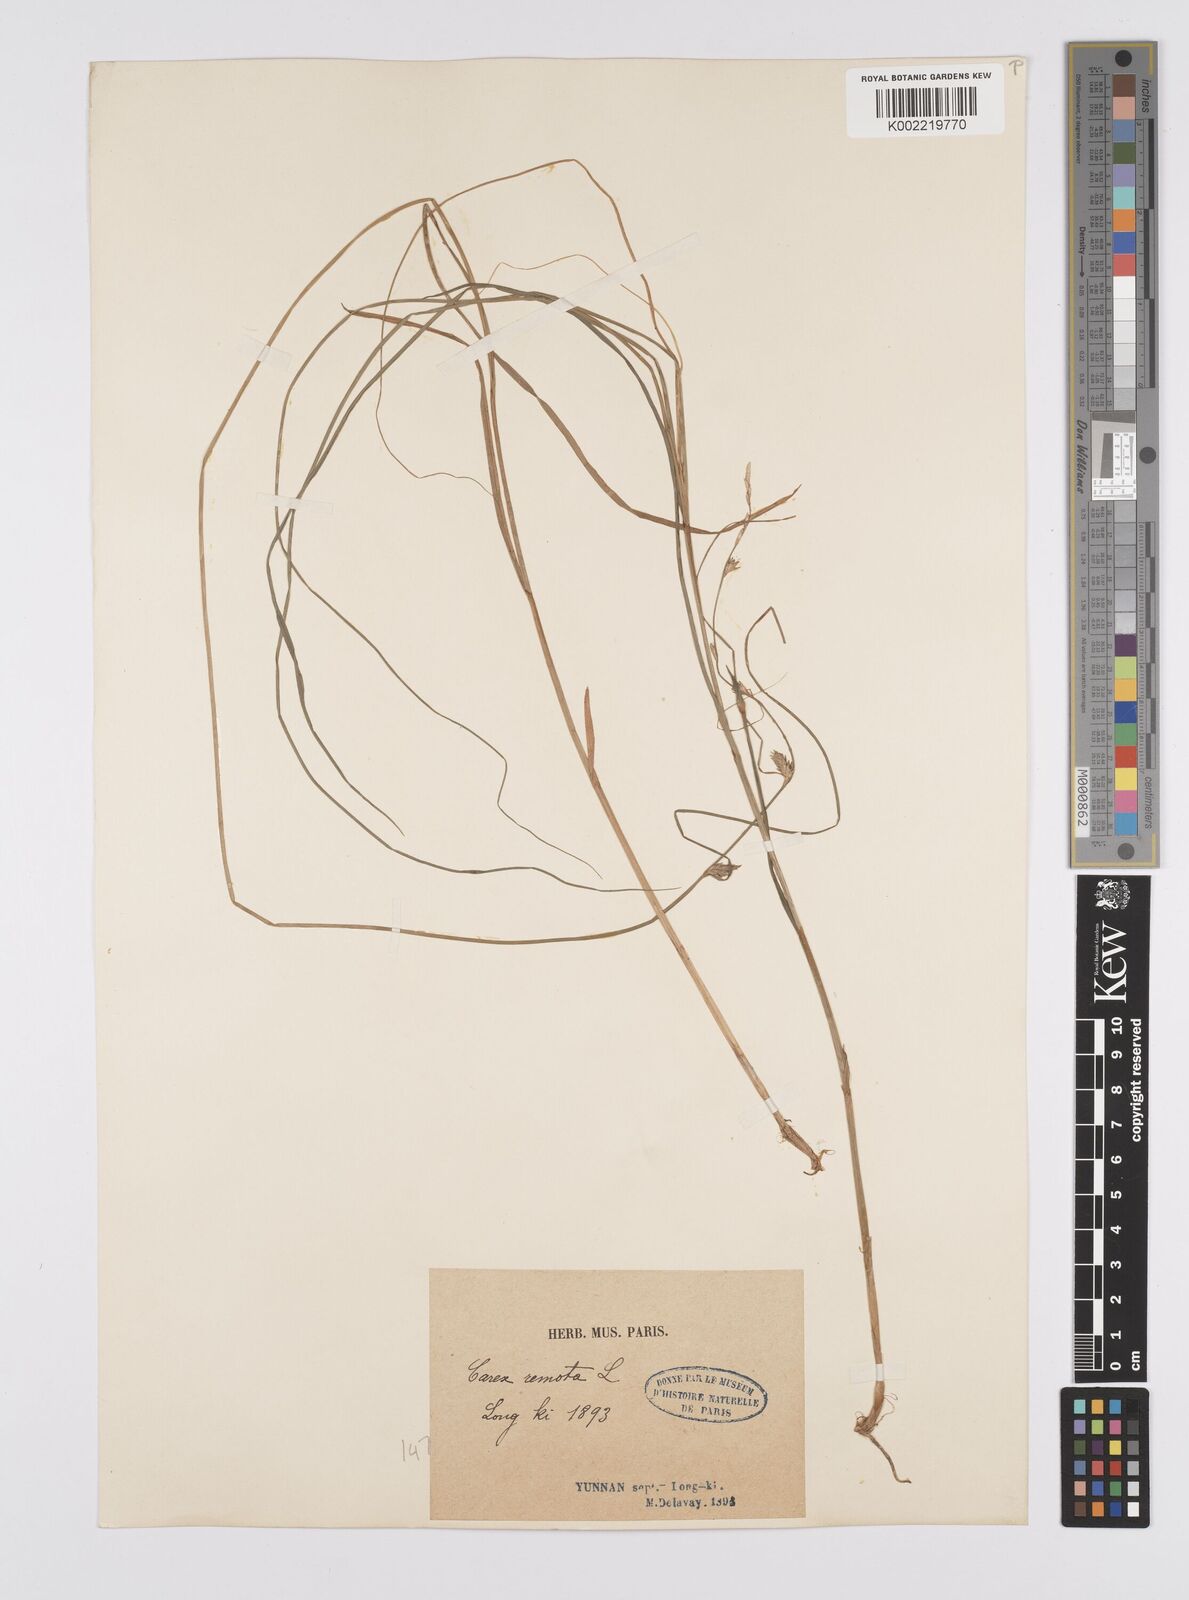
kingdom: Plantae
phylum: Tracheophyta
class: Liliopsida
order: Poales
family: Cyperaceae
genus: Carex
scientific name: Carex remota
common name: Remote sedge
